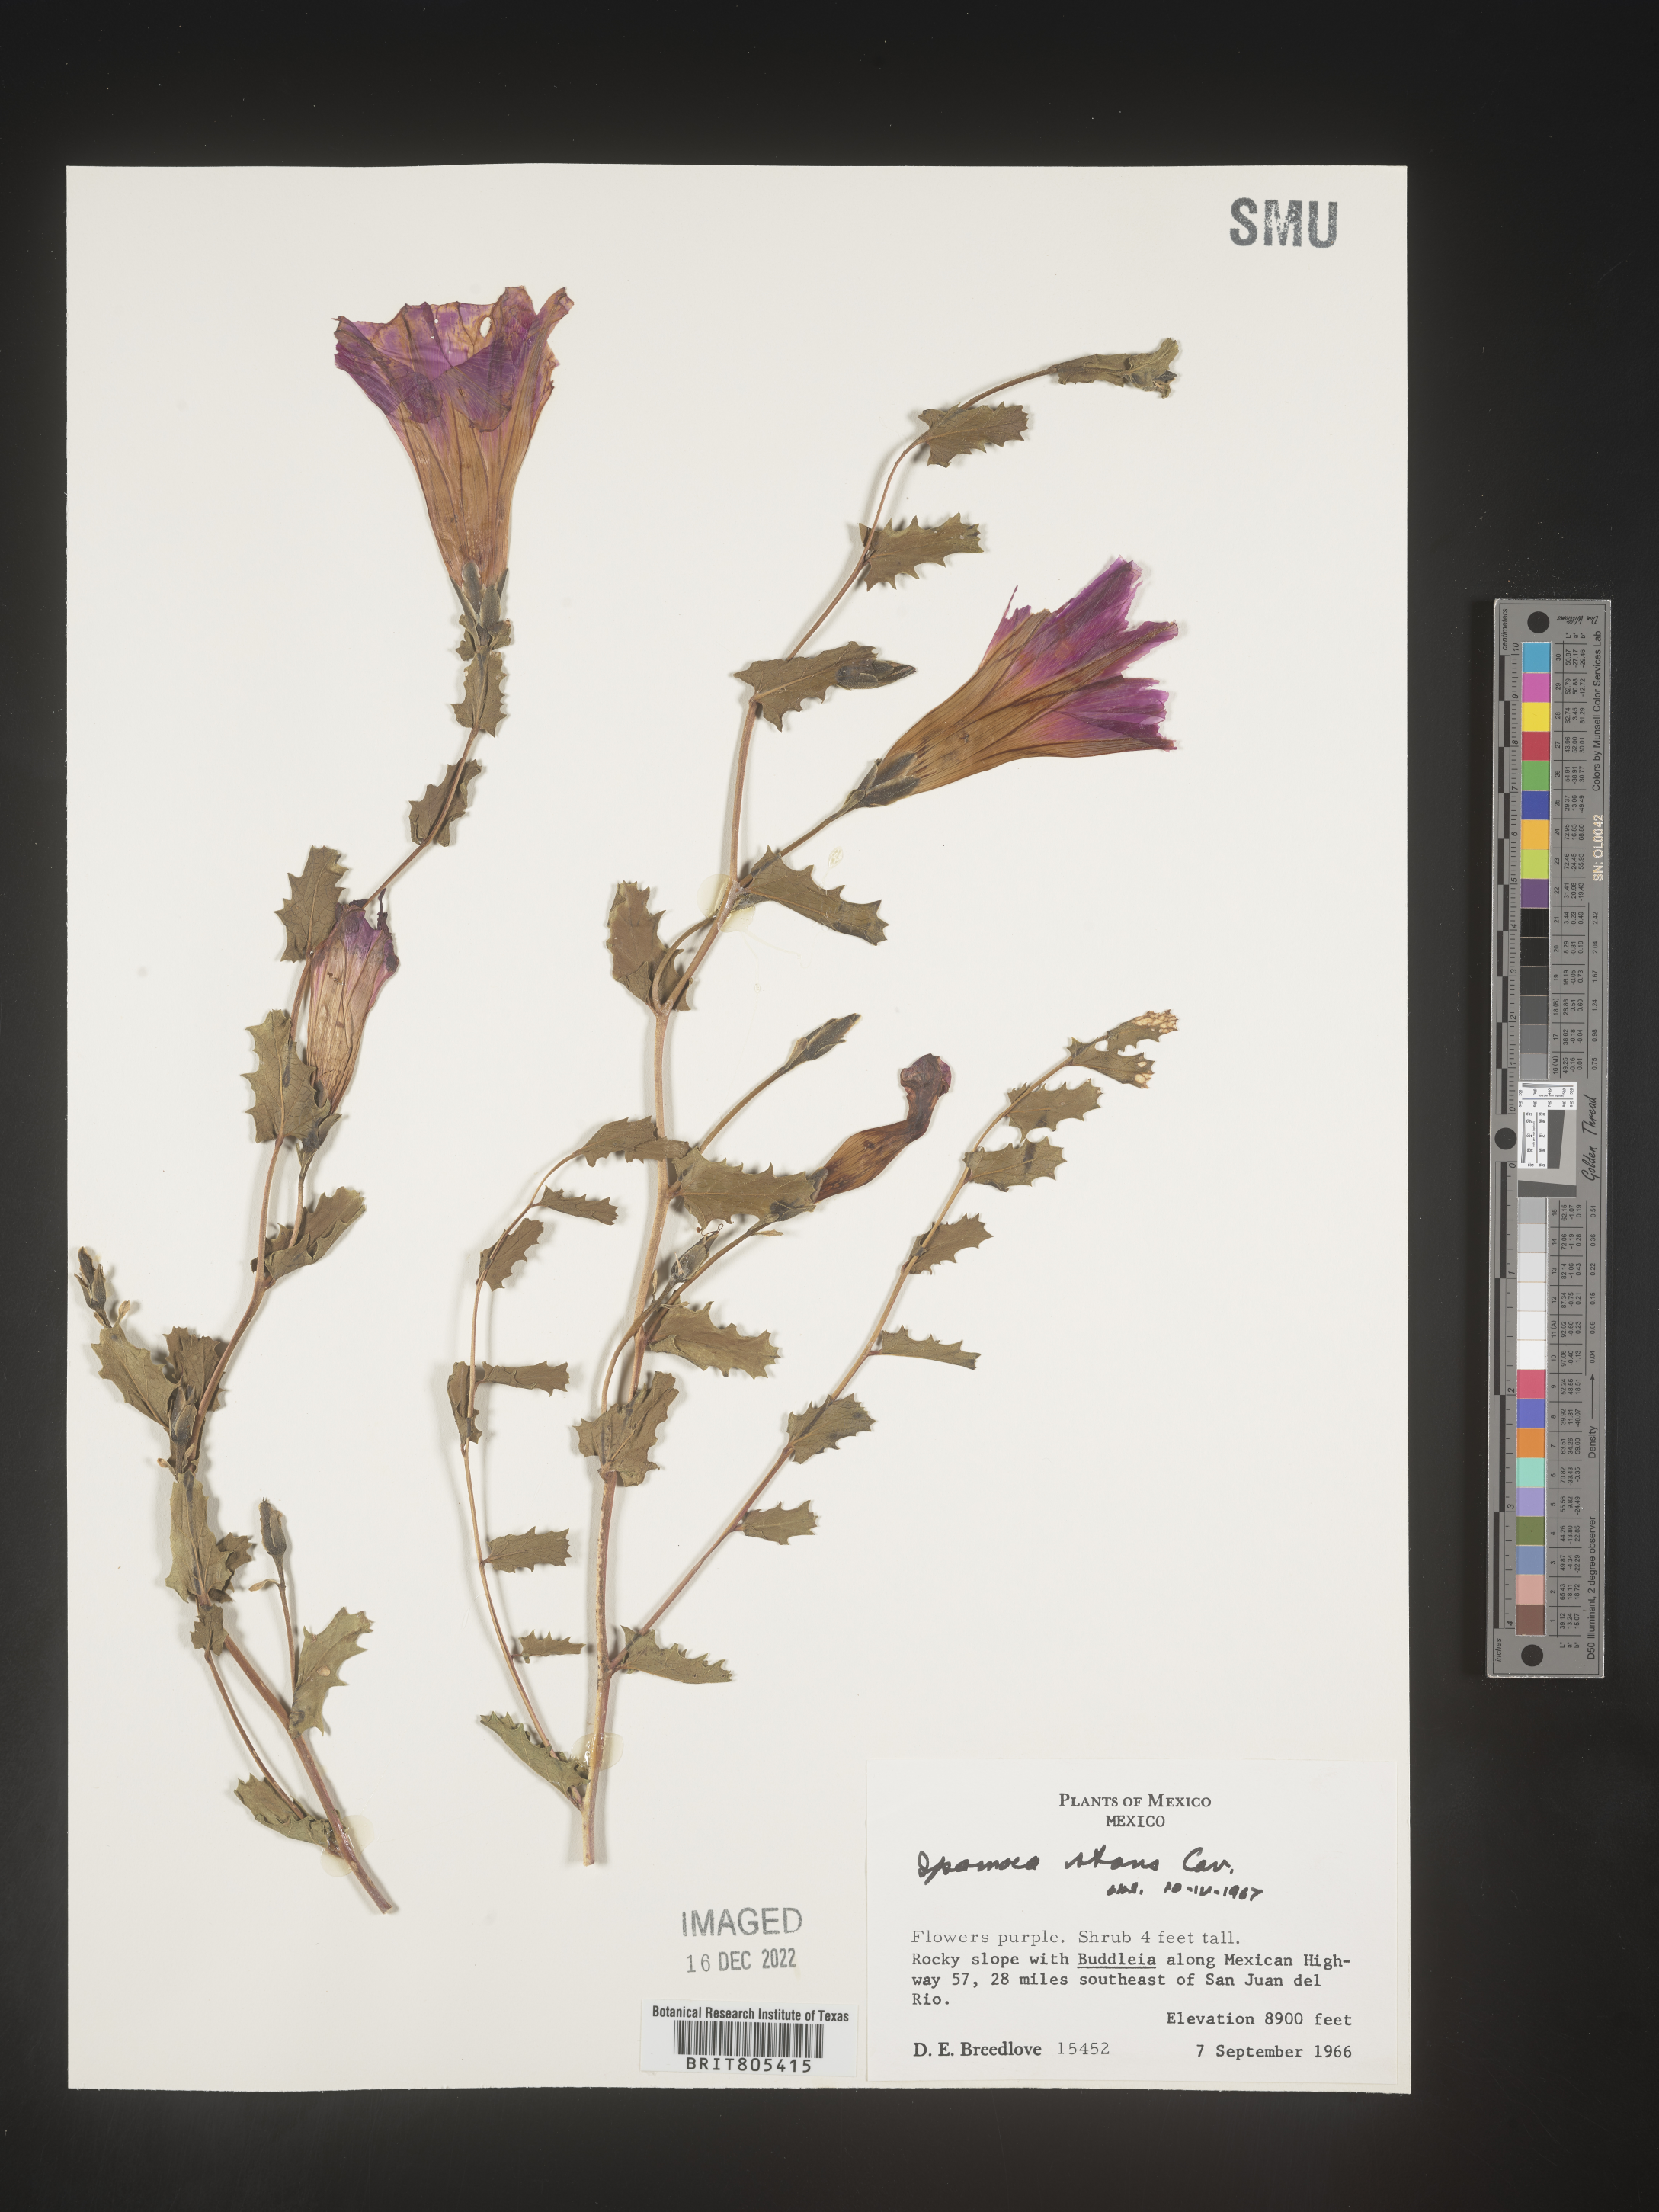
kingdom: Plantae
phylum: Tracheophyta
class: Magnoliopsida
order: Solanales
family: Convolvulaceae
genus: Ipomoea
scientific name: Ipomoea
